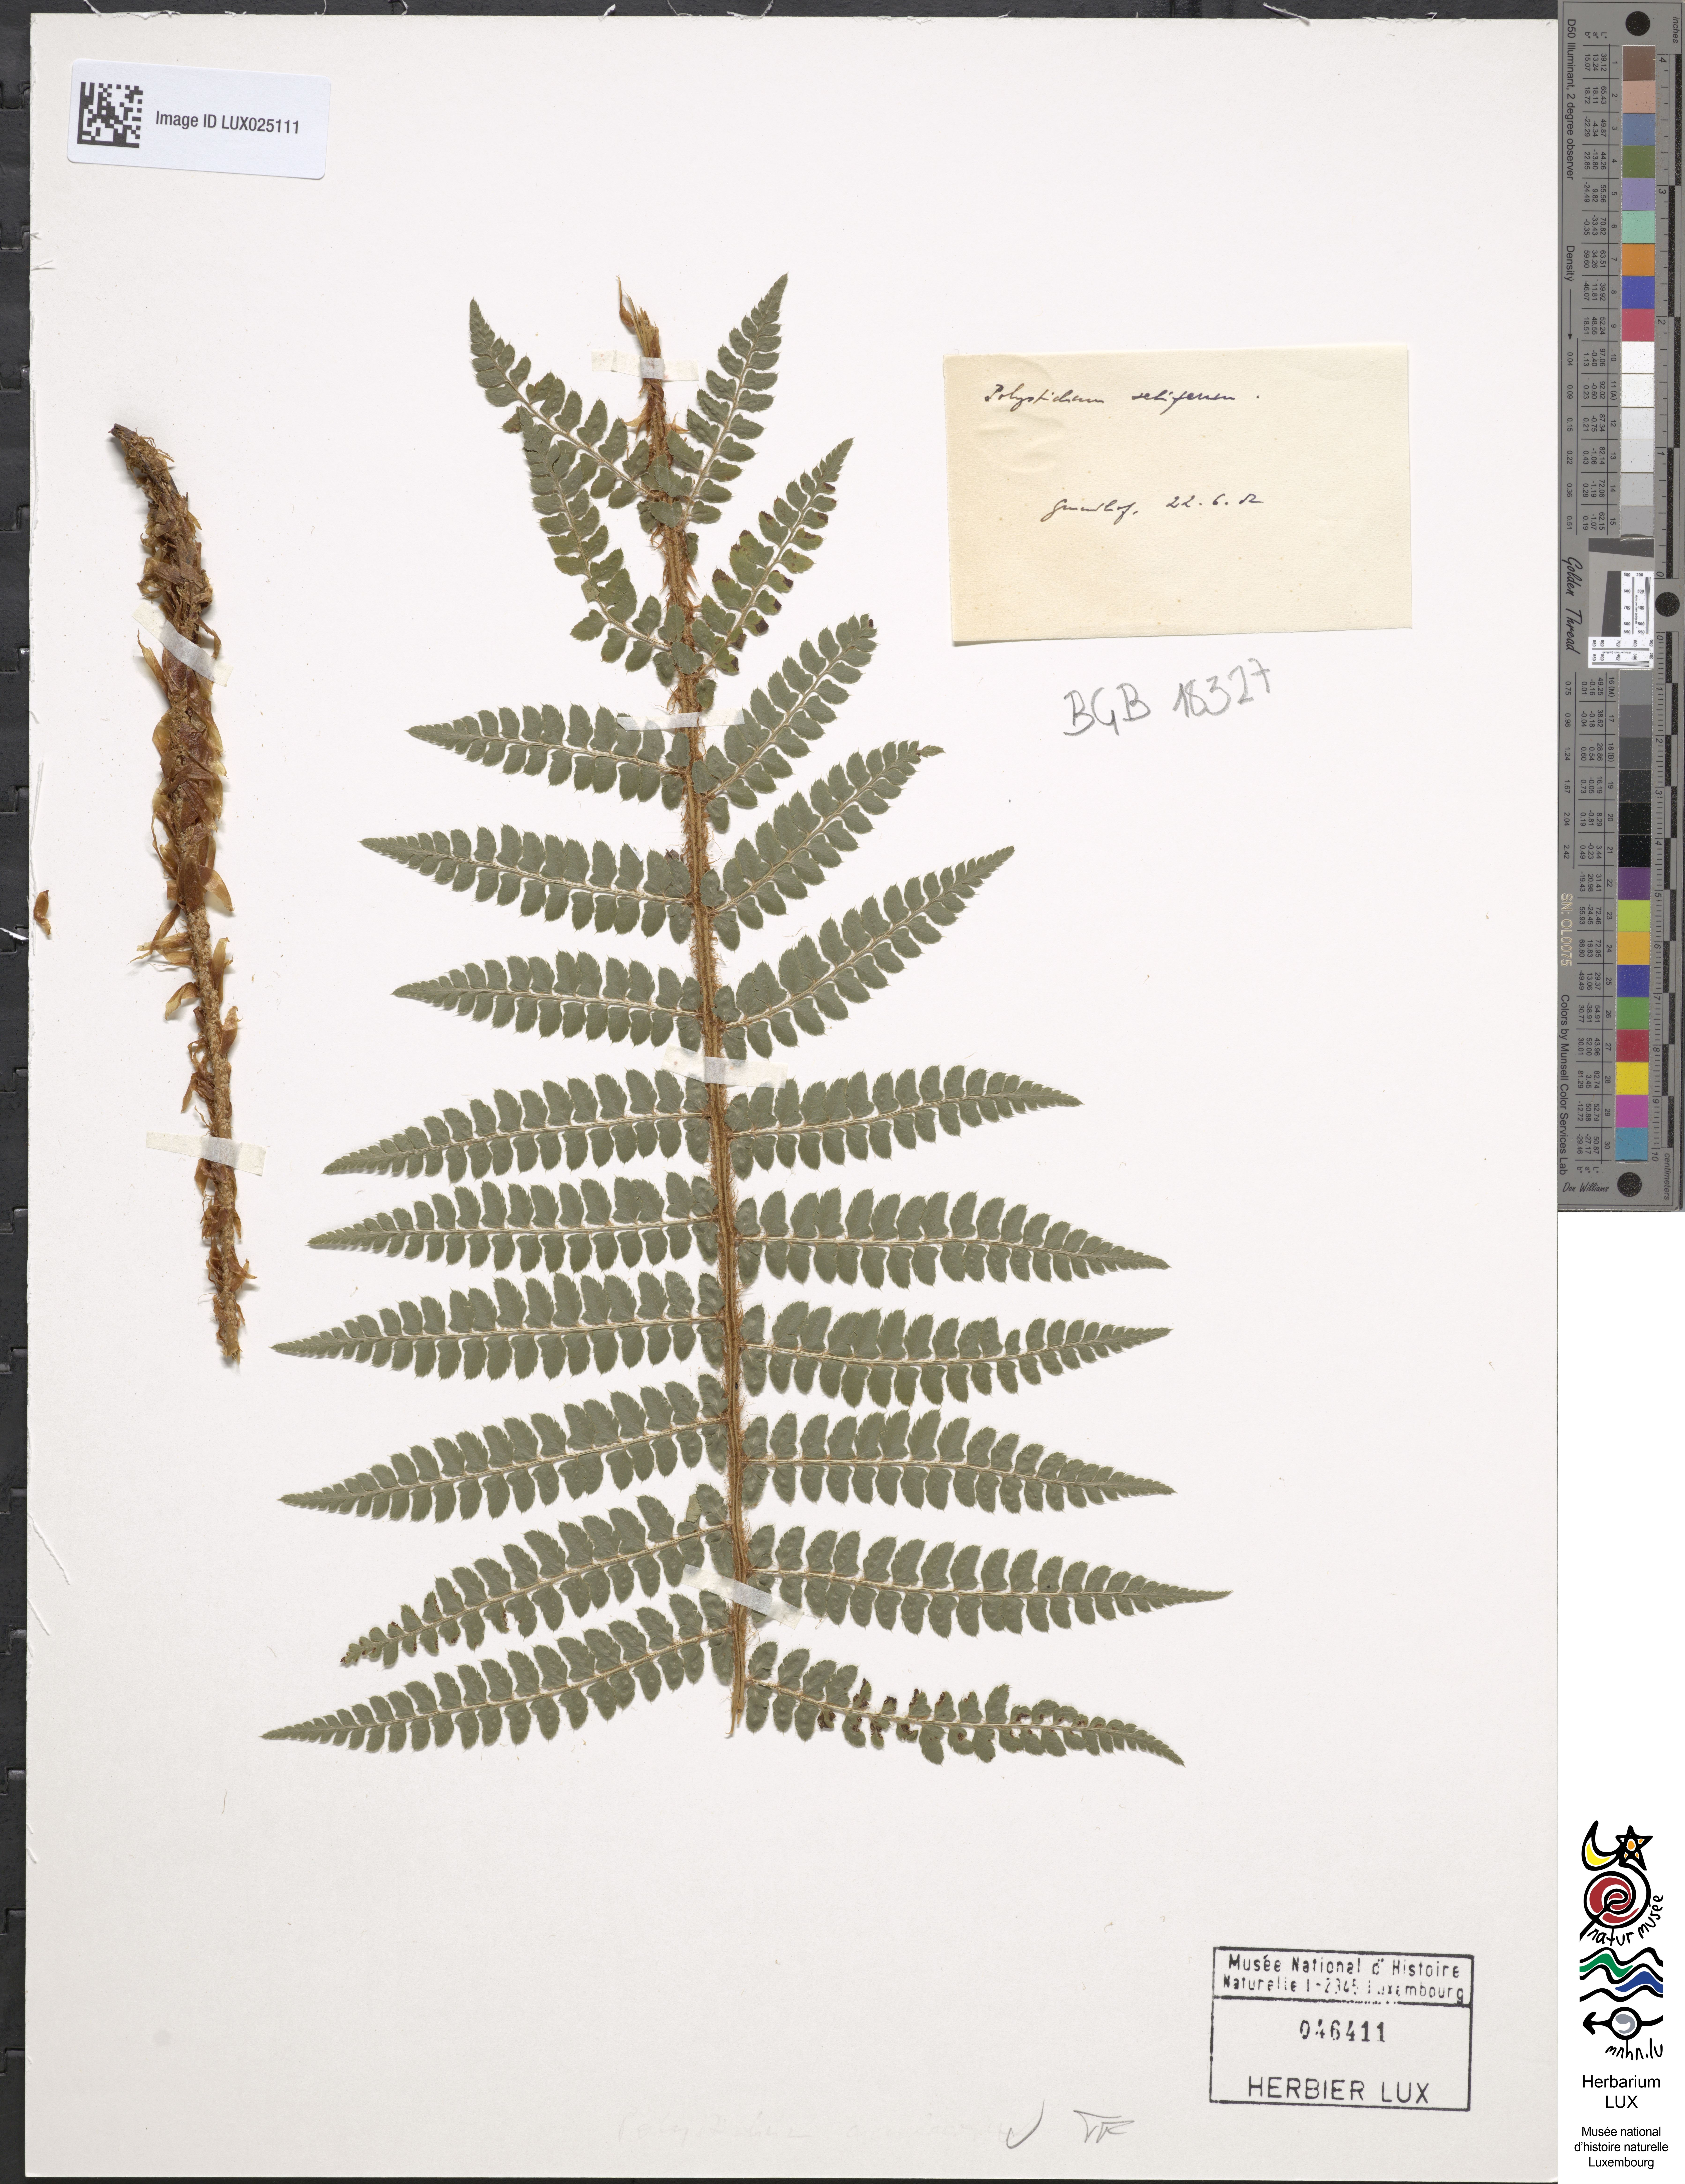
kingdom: Plantae
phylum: Tracheophyta
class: Polypodiopsida
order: Polypodiales
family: Dryopteridaceae
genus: Polystichum
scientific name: Polystichum setiferum
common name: Soft shield-fern
